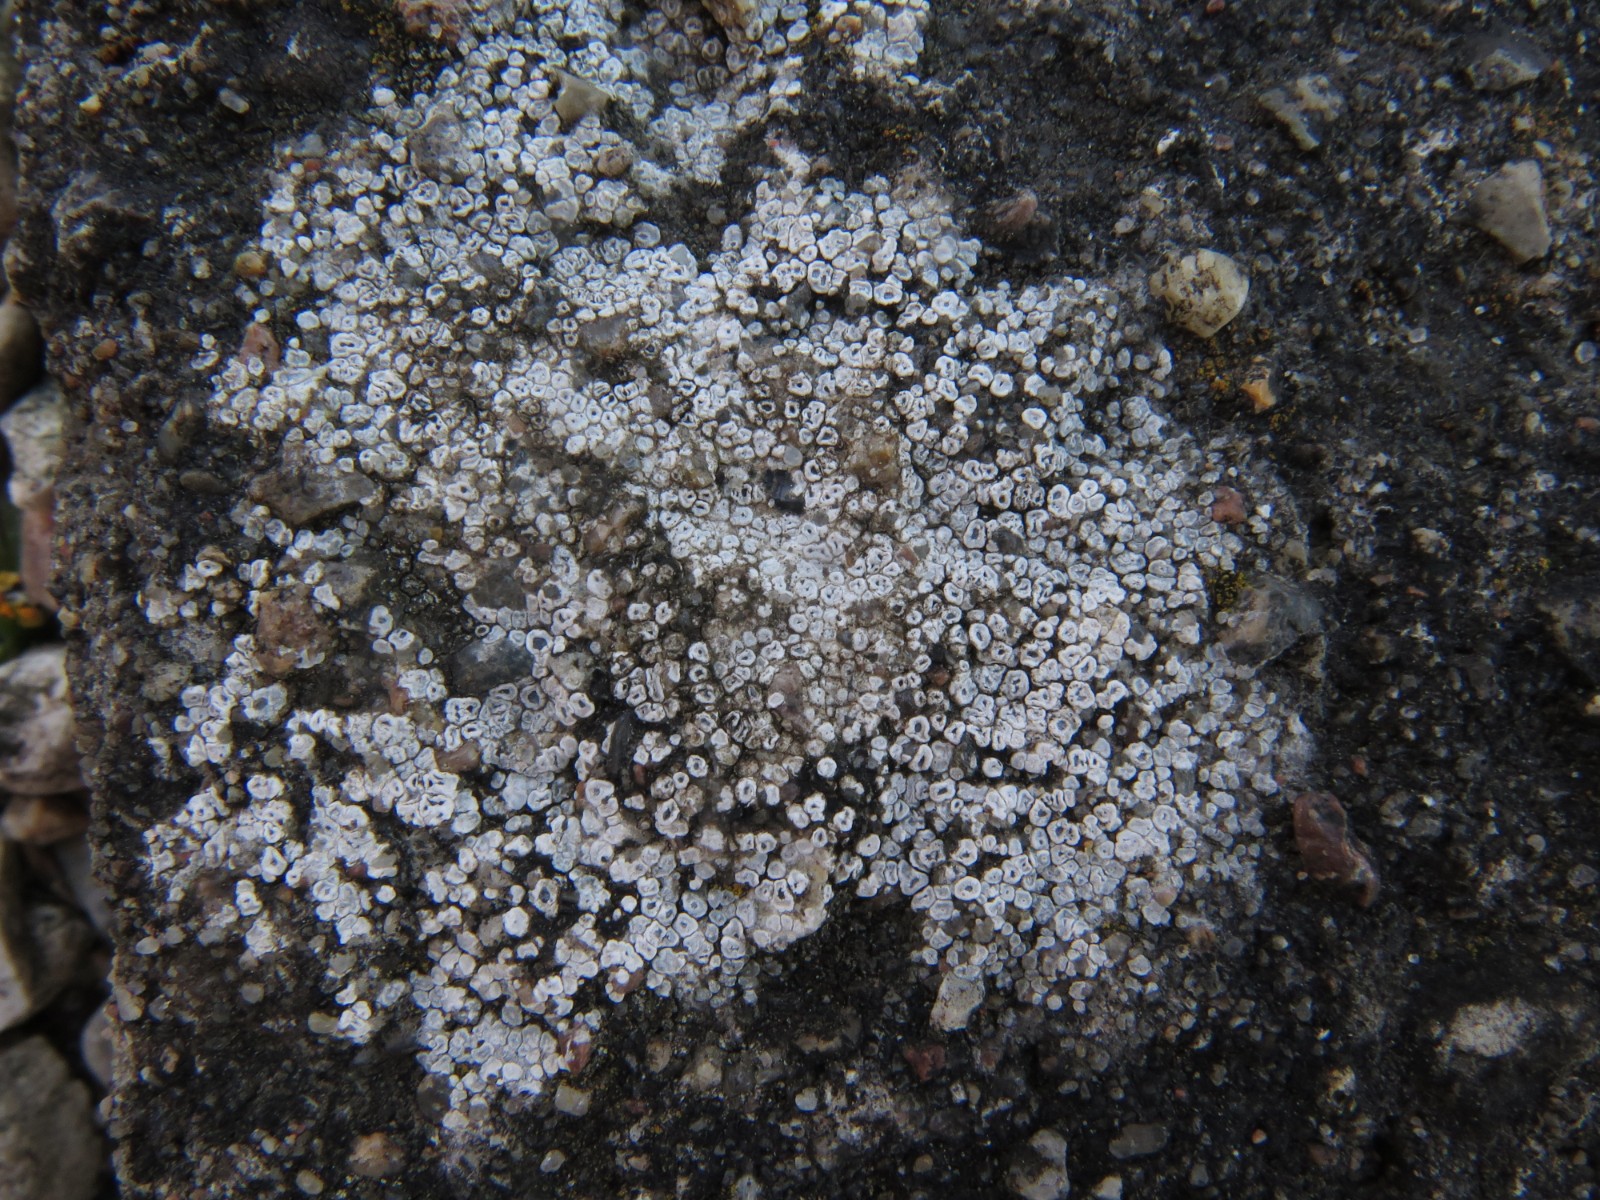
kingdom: Fungi
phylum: Ascomycota
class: Lecanoromycetes
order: Pertusariales
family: Megasporaceae
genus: Circinaria
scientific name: Circinaria contorta
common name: indviklet hulskivelav
